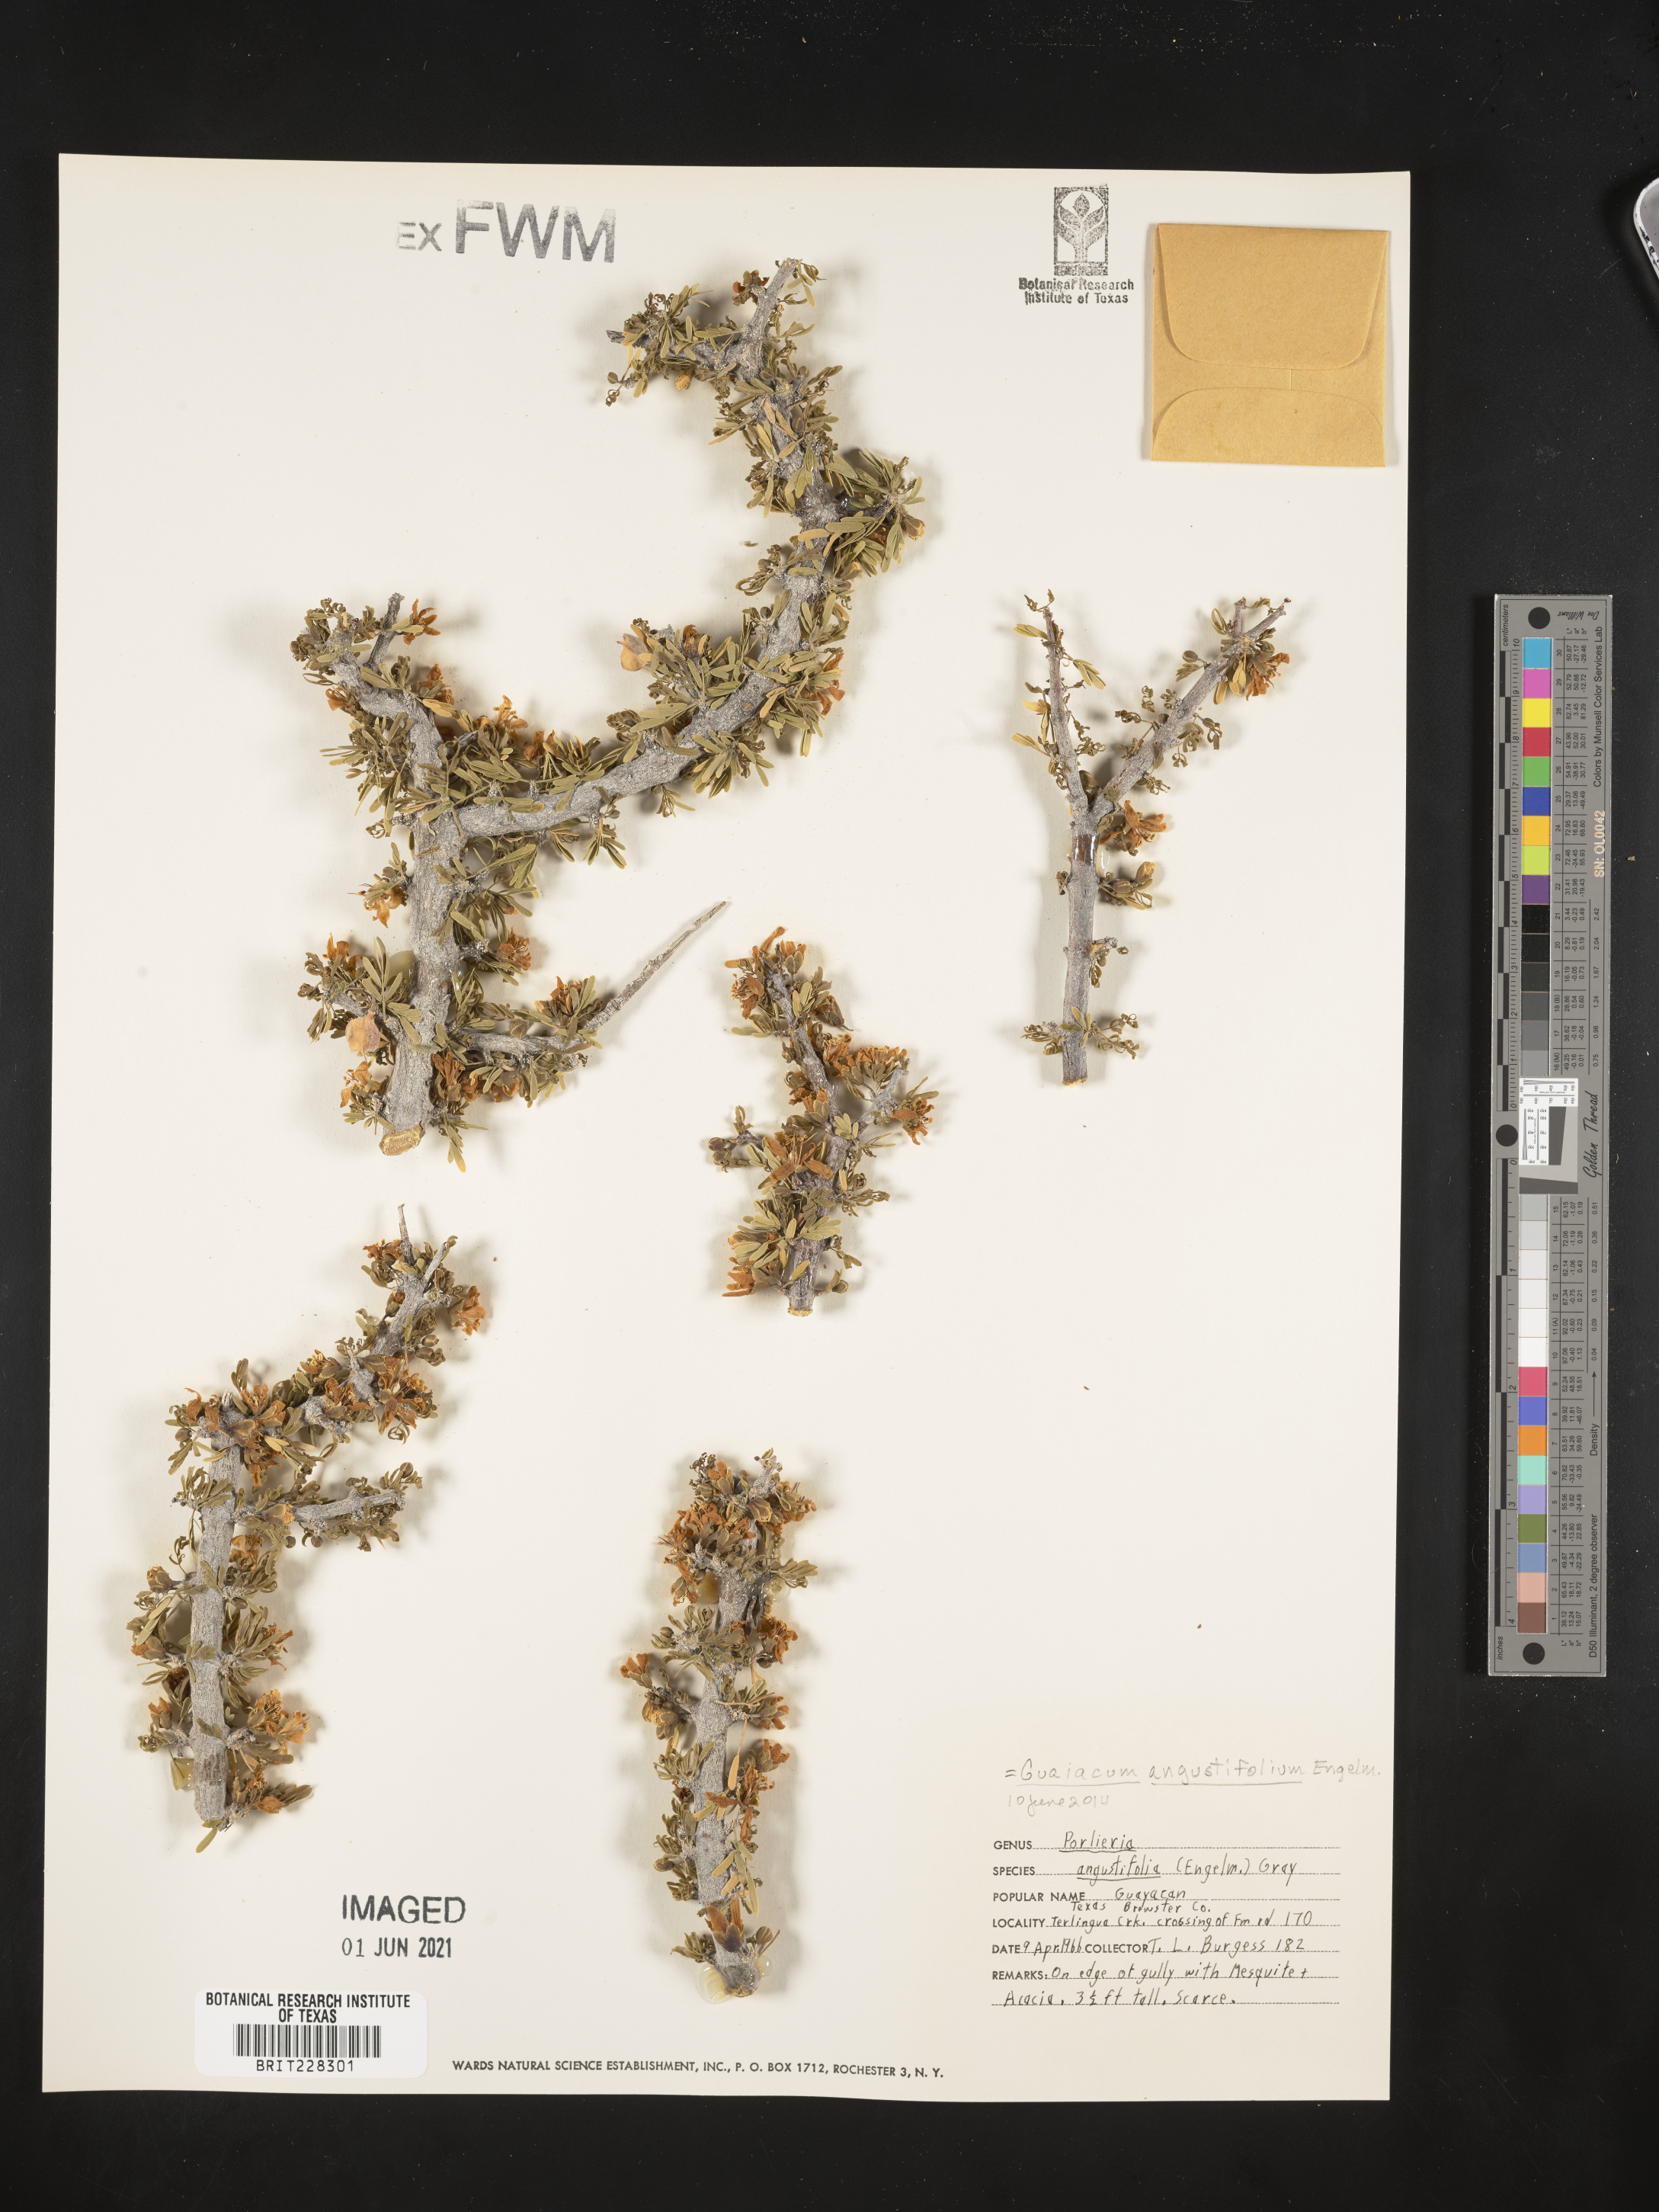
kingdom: Plantae
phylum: Tracheophyta
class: Magnoliopsida
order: Zygophyllales
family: Zygophyllaceae
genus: Porlieria
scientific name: Porlieria angustifolia
